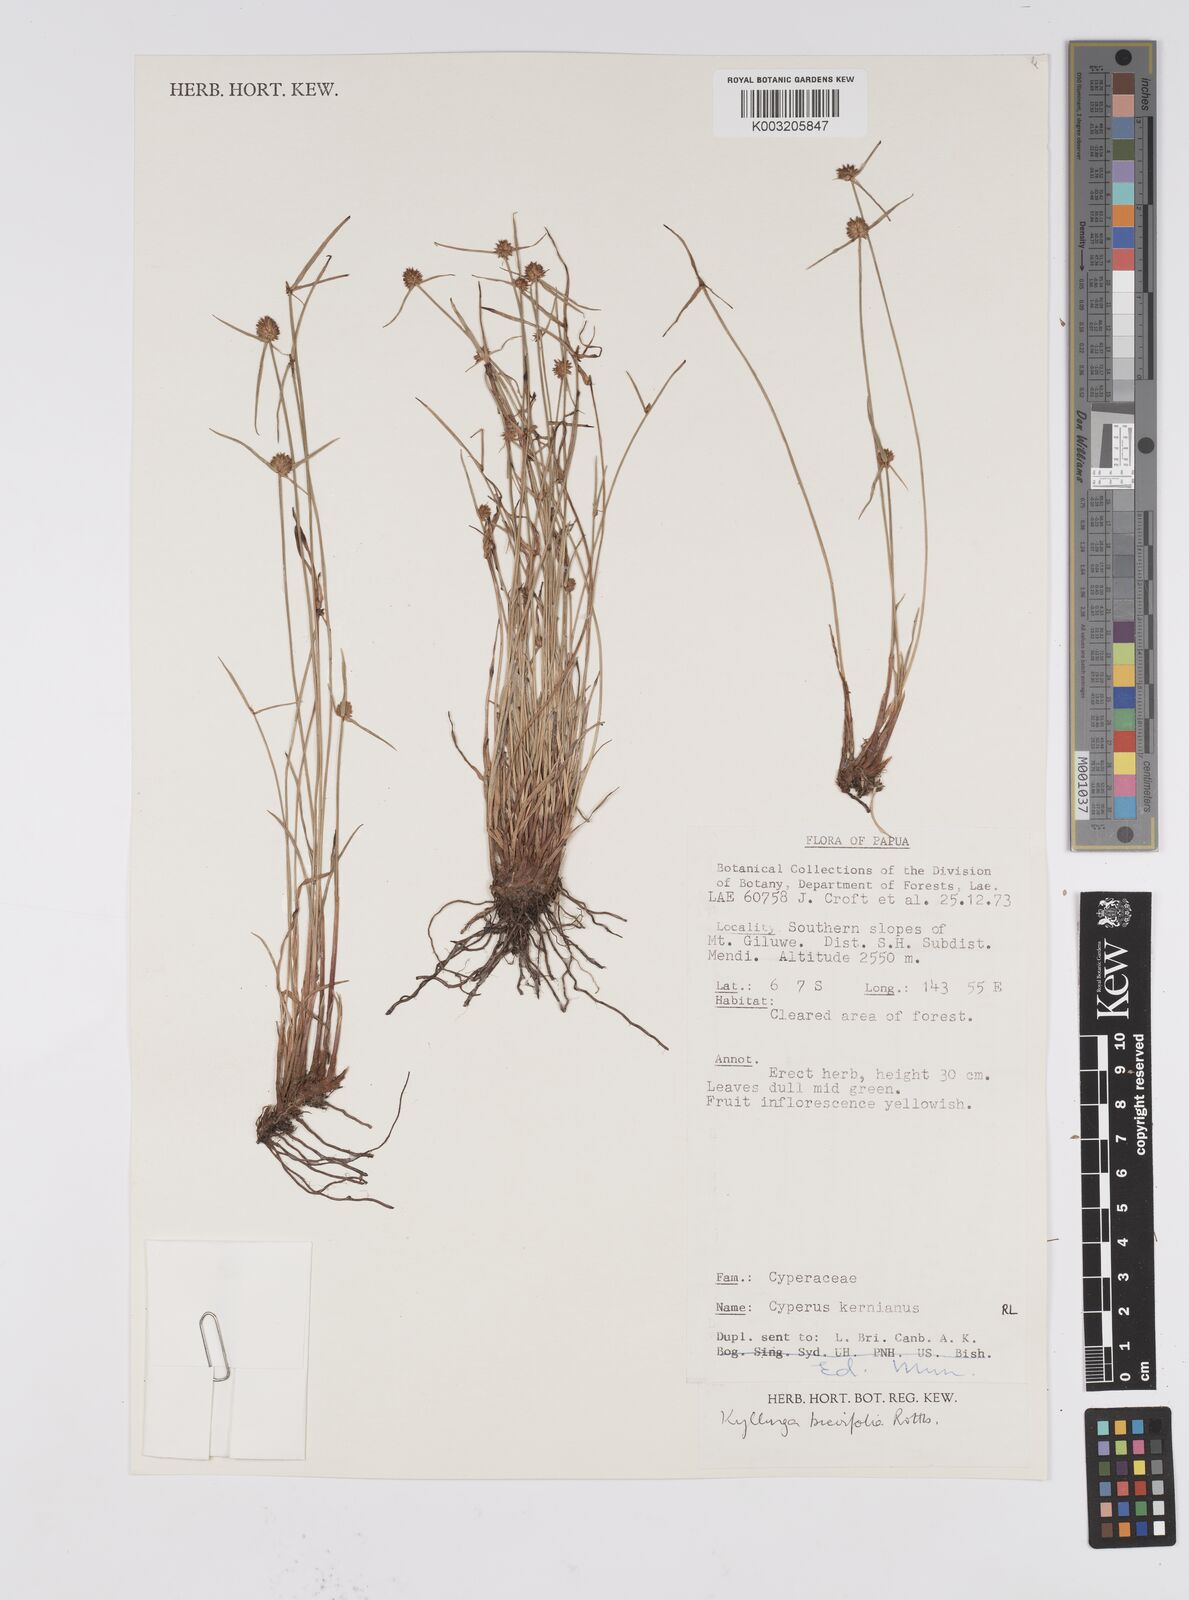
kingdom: Plantae
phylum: Tracheophyta
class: Liliopsida
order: Poales
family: Cyperaceae
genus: Cyperus
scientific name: Cyperus brevifolius
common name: Globe kyllinga
